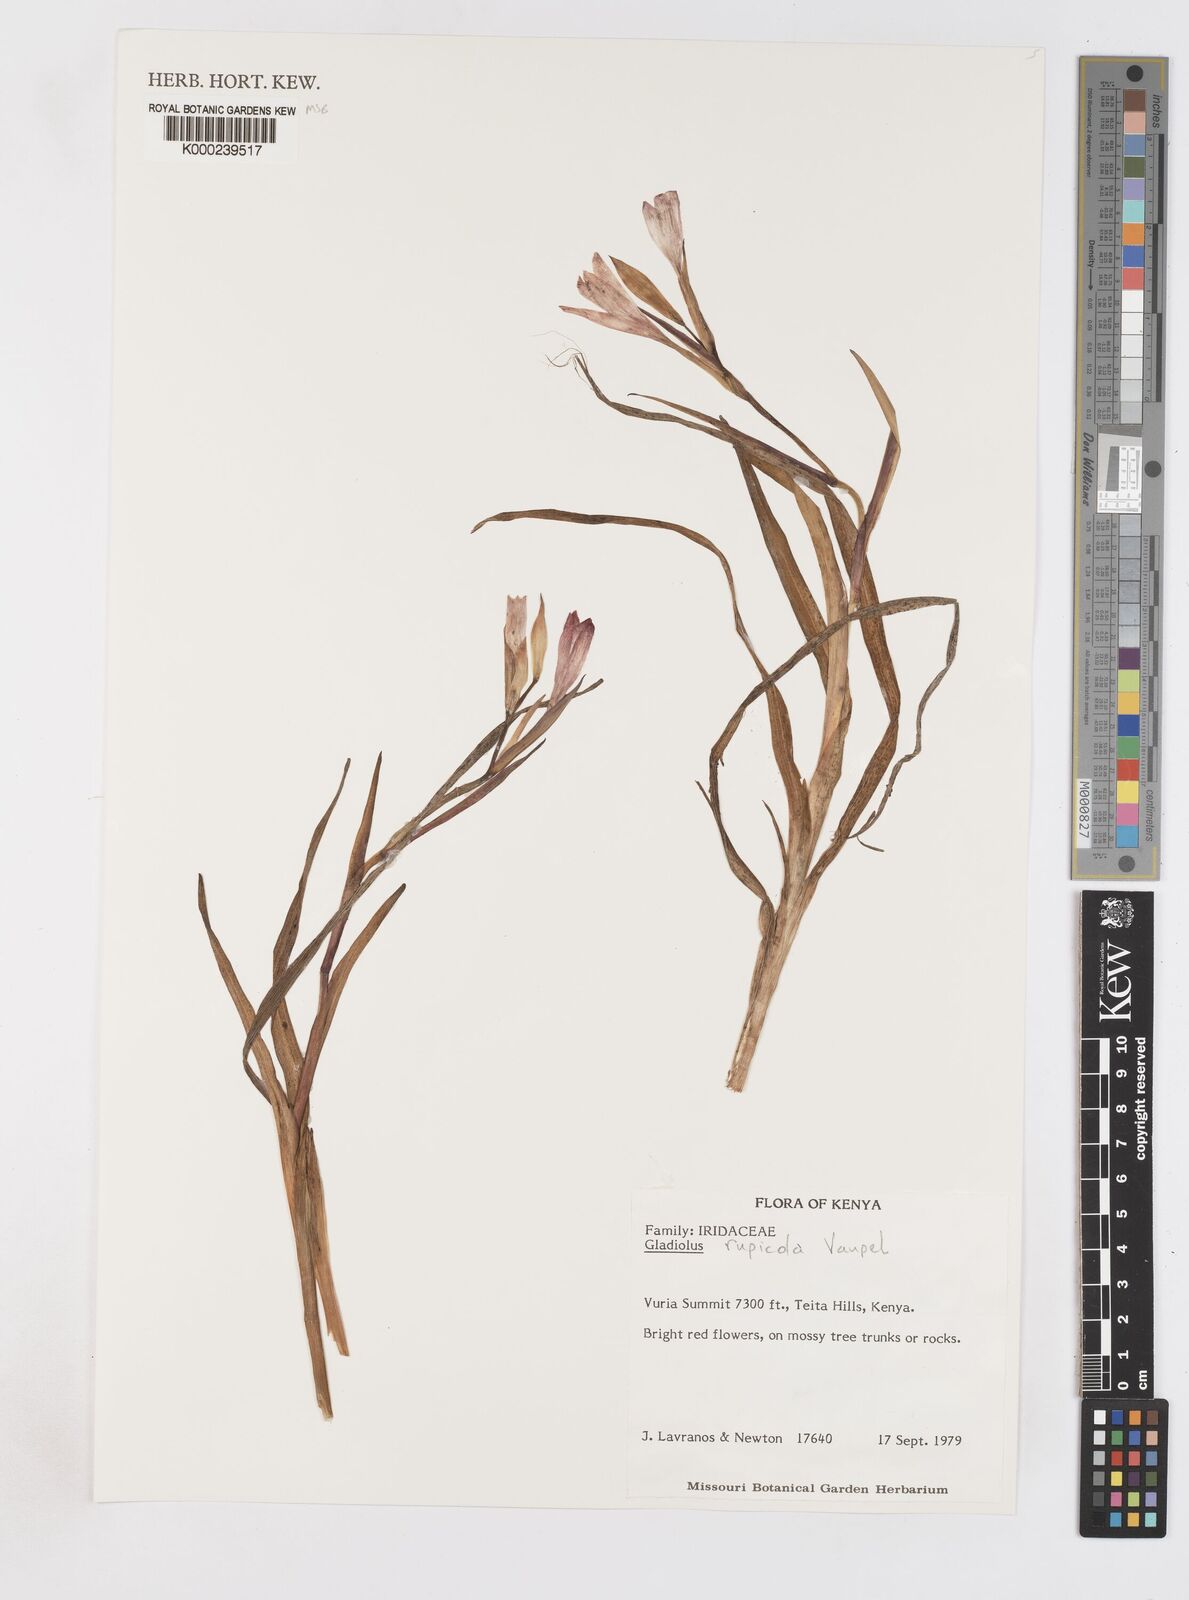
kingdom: Plantae
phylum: Tracheophyta
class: Liliopsida
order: Asparagales
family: Iridaceae
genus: Gladiolus
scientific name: Gladiolus rupicola
